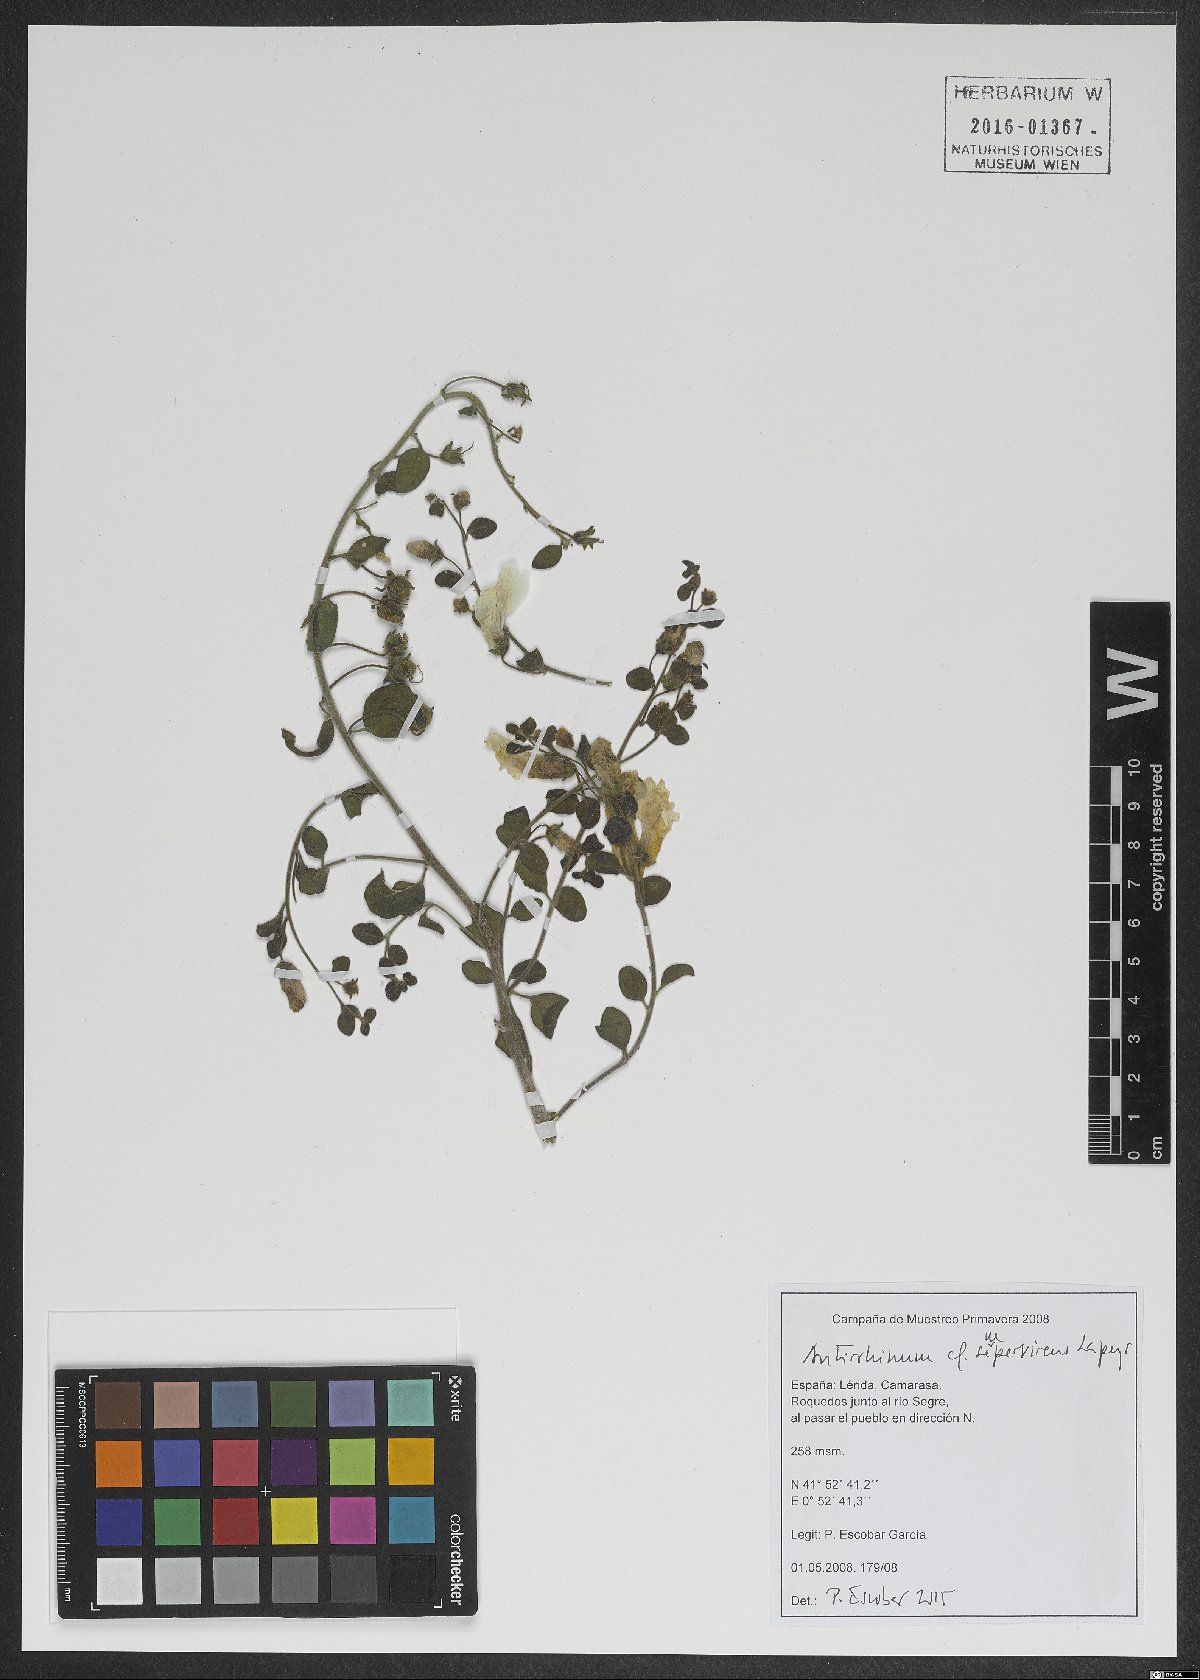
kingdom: Plantae
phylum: Tracheophyta
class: Magnoliopsida
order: Lamiales
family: Plantaginaceae
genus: Antirrhinum
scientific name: Antirrhinum sempervirens
